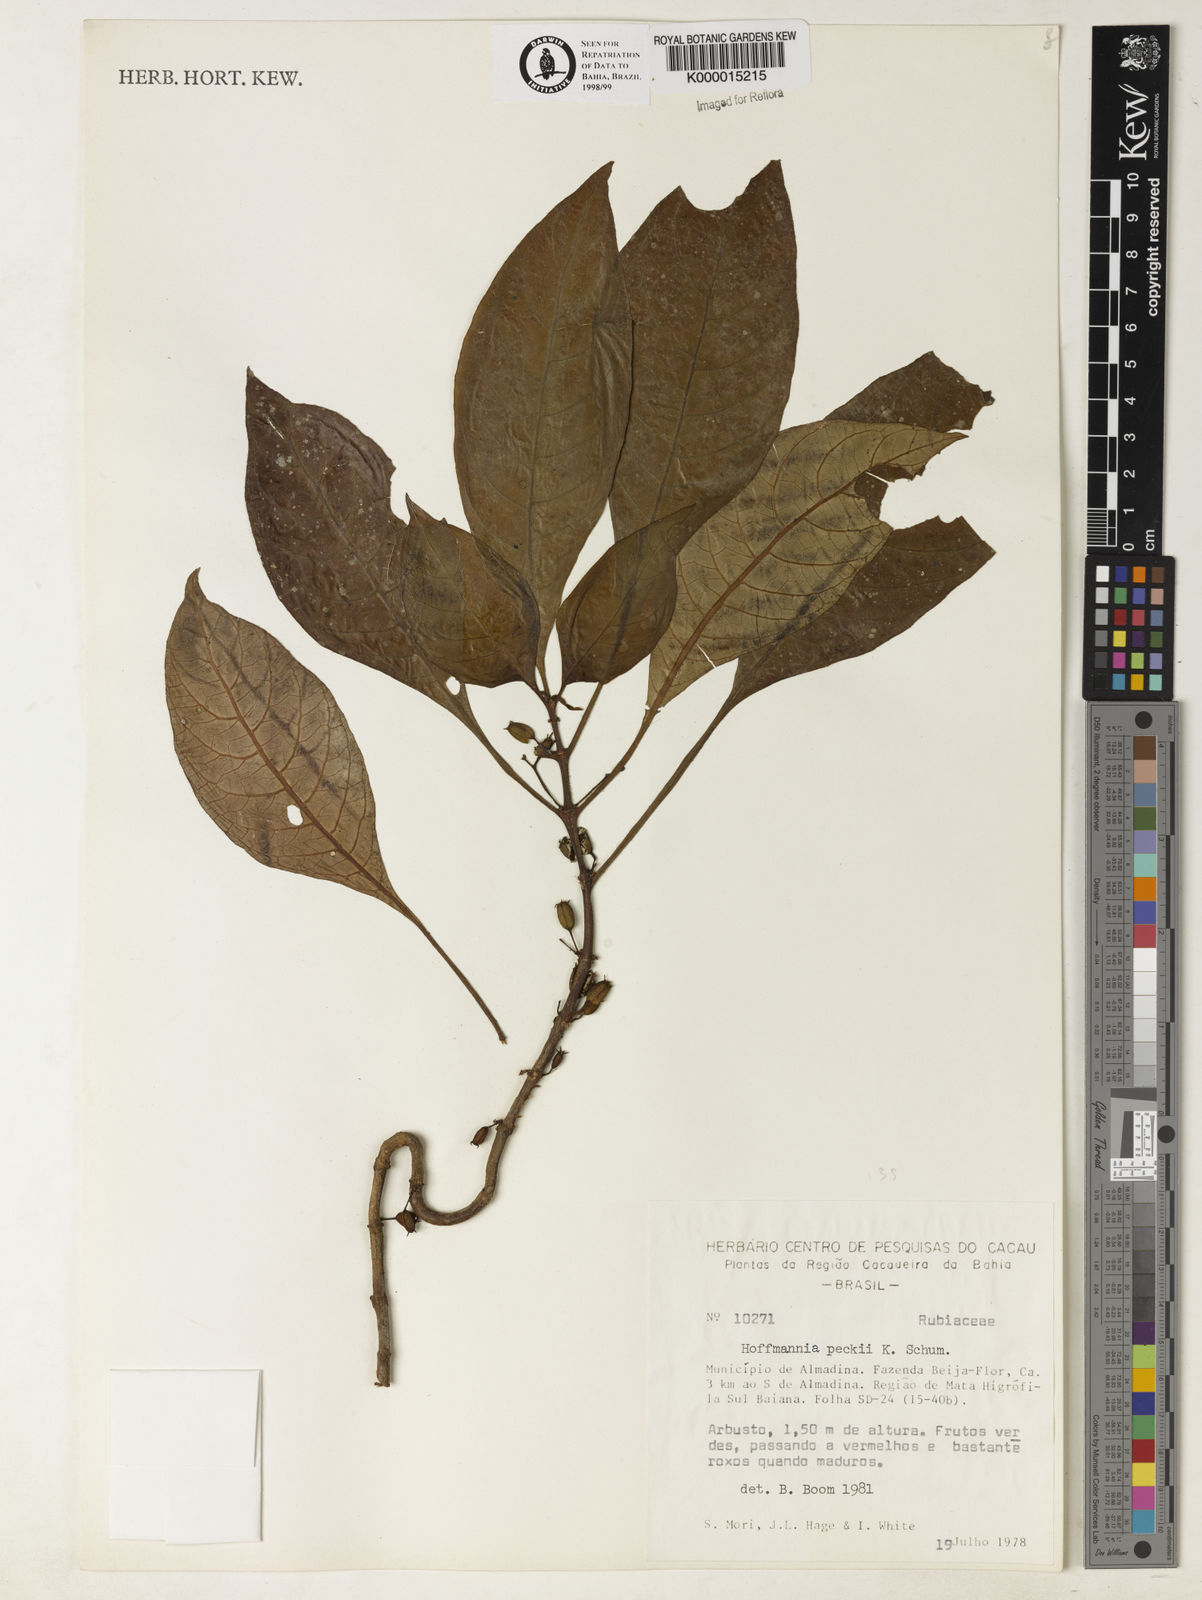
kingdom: Plantae
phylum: Tracheophyta
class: Magnoliopsida
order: Gentianales
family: Rubiaceae
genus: Hoffmannia
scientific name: Hoffmannia peckii
